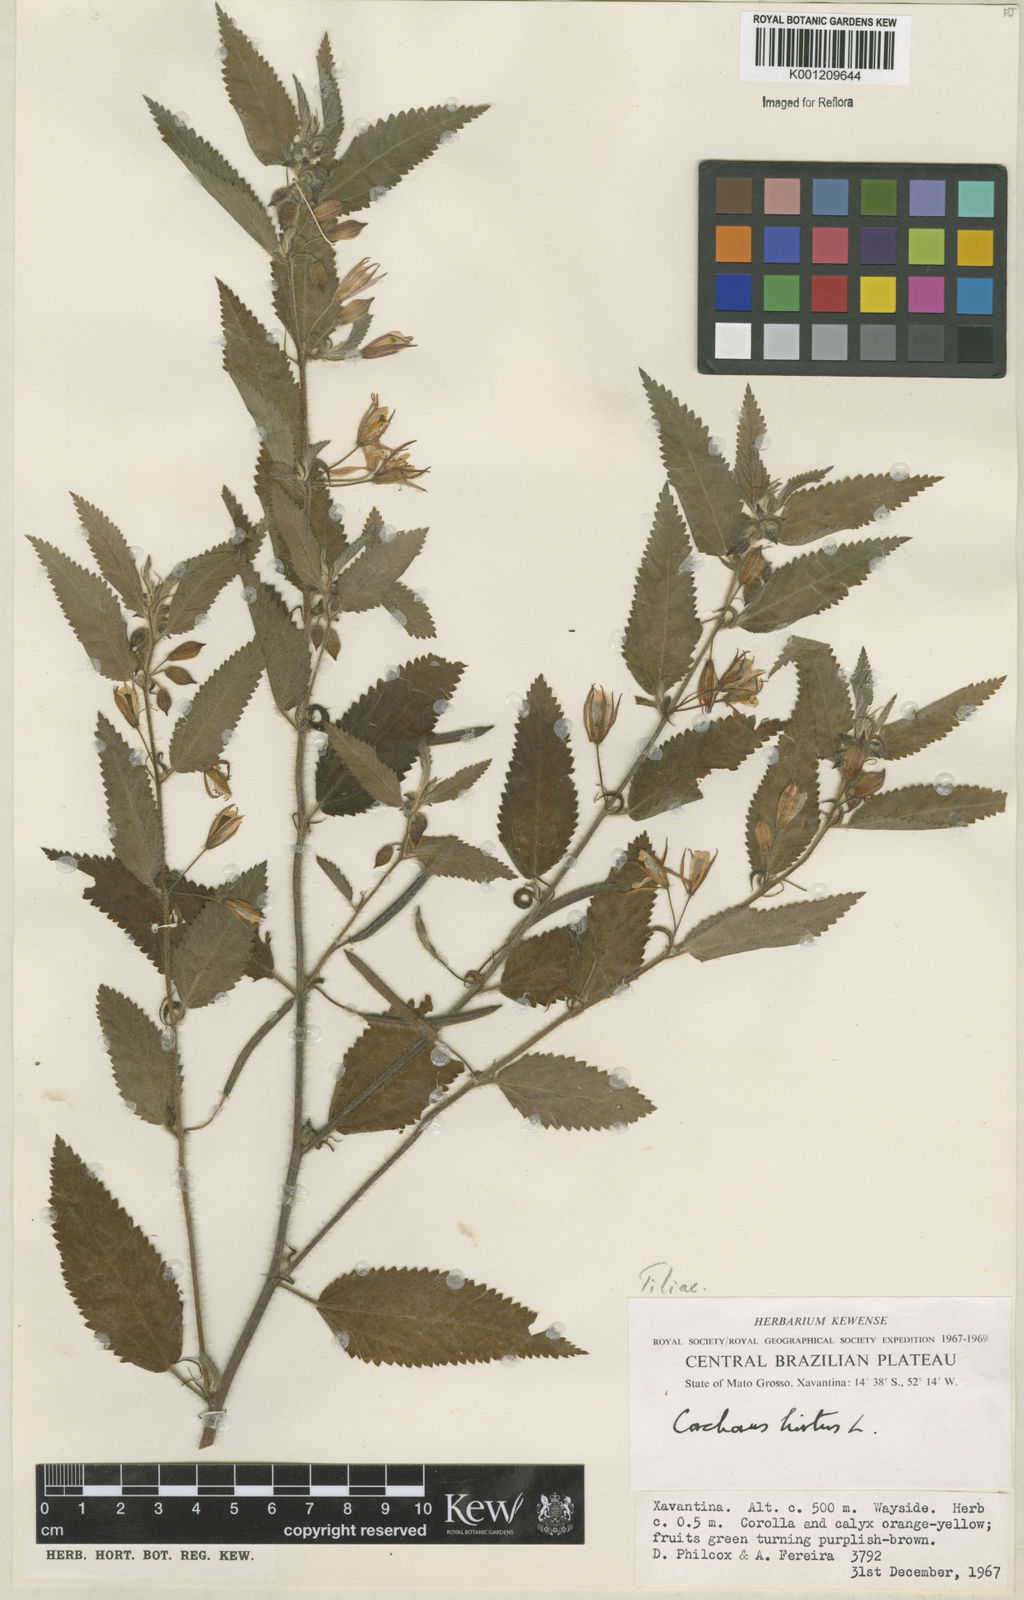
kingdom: Plantae
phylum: Tracheophyta
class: Magnoliopsida
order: Malvales
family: Malvaceae
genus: Corchorus
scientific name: Corchorus hirtus
